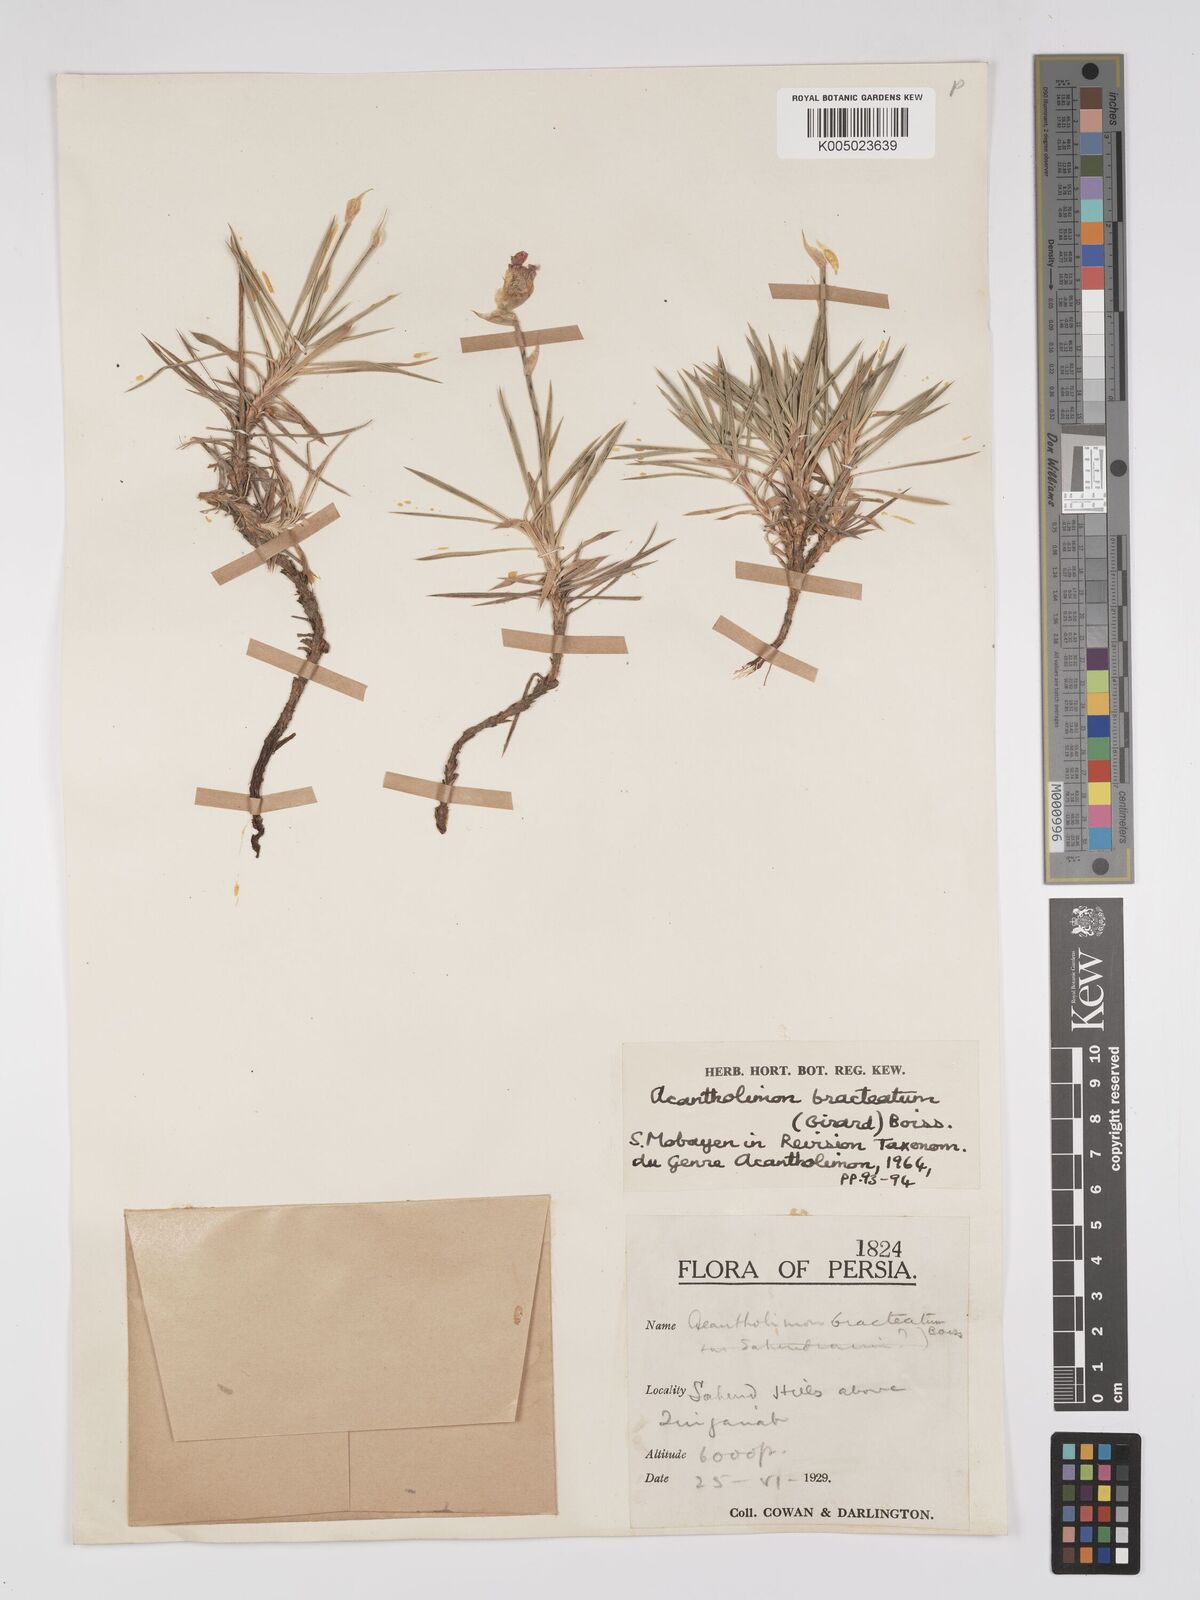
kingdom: Plantae
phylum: Tracheophyta
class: Magnoliopsida
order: Caryophyllales
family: Plumbaginaceae
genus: Acantholimon
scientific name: Acantholimon bracteatum
